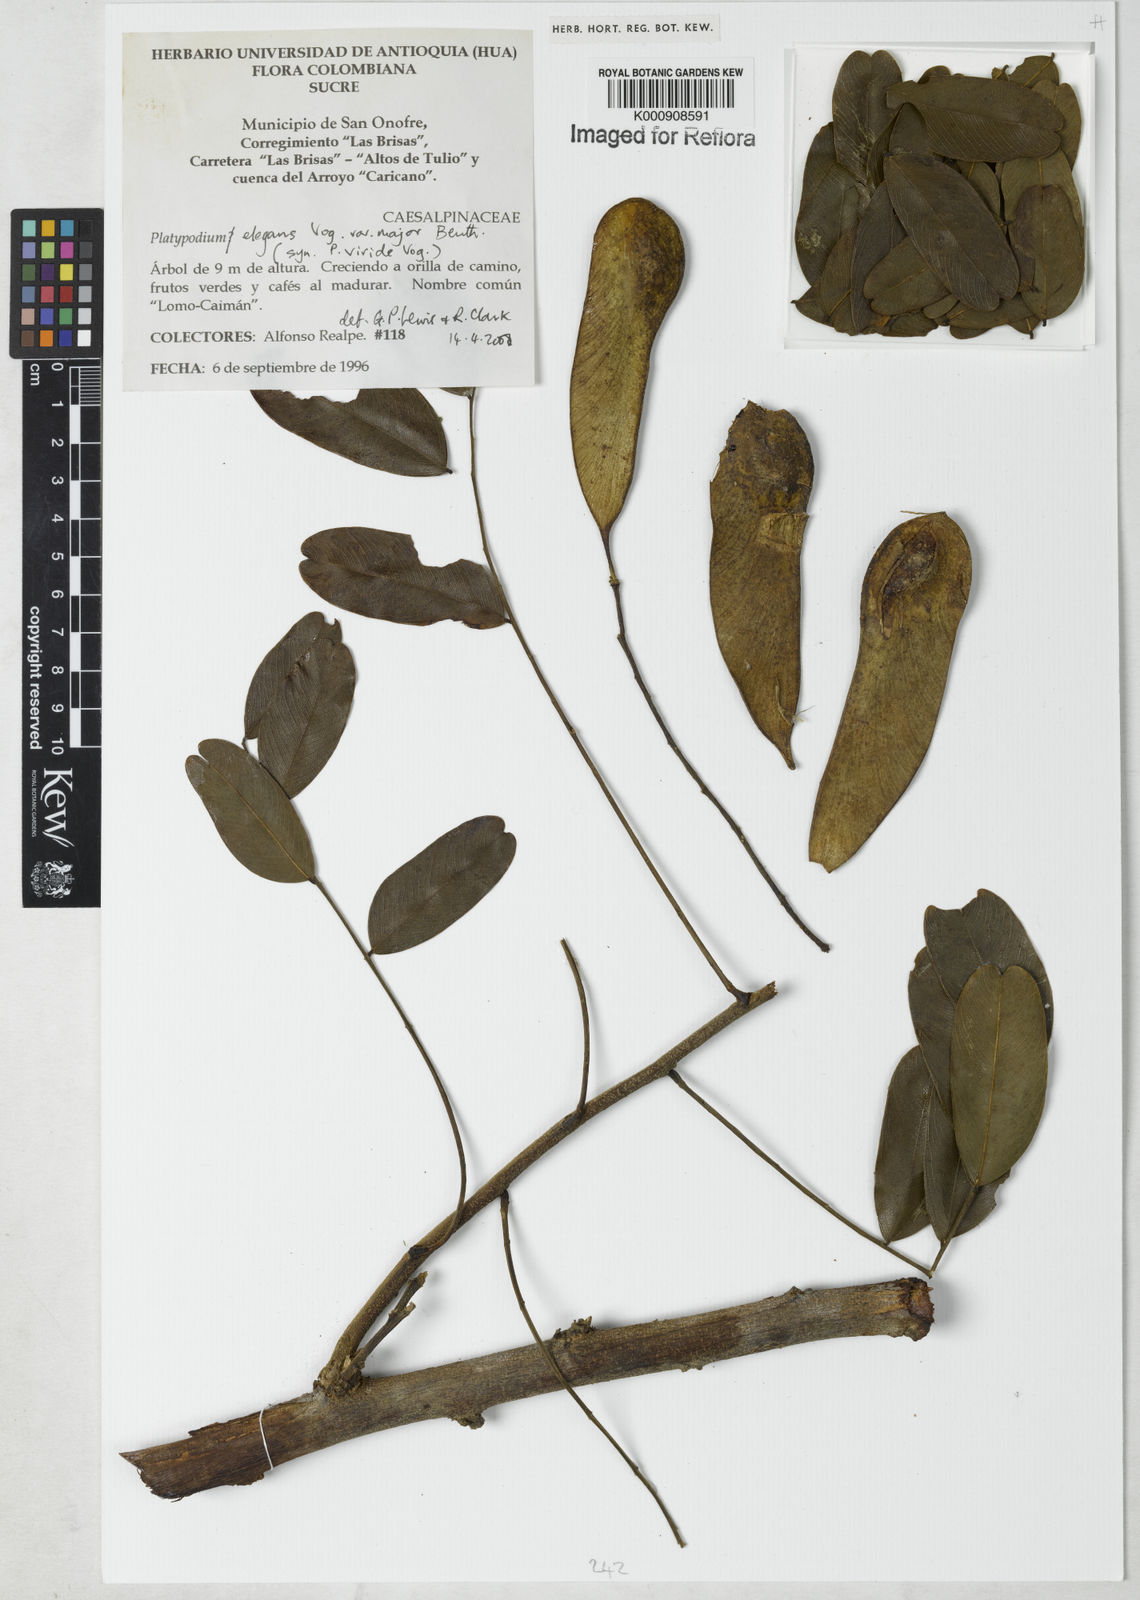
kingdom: Plantae
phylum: Tracheophyta
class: Magnoliopsida
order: Fabales
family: Fabaceae
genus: Platypodium
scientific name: Platypodium
